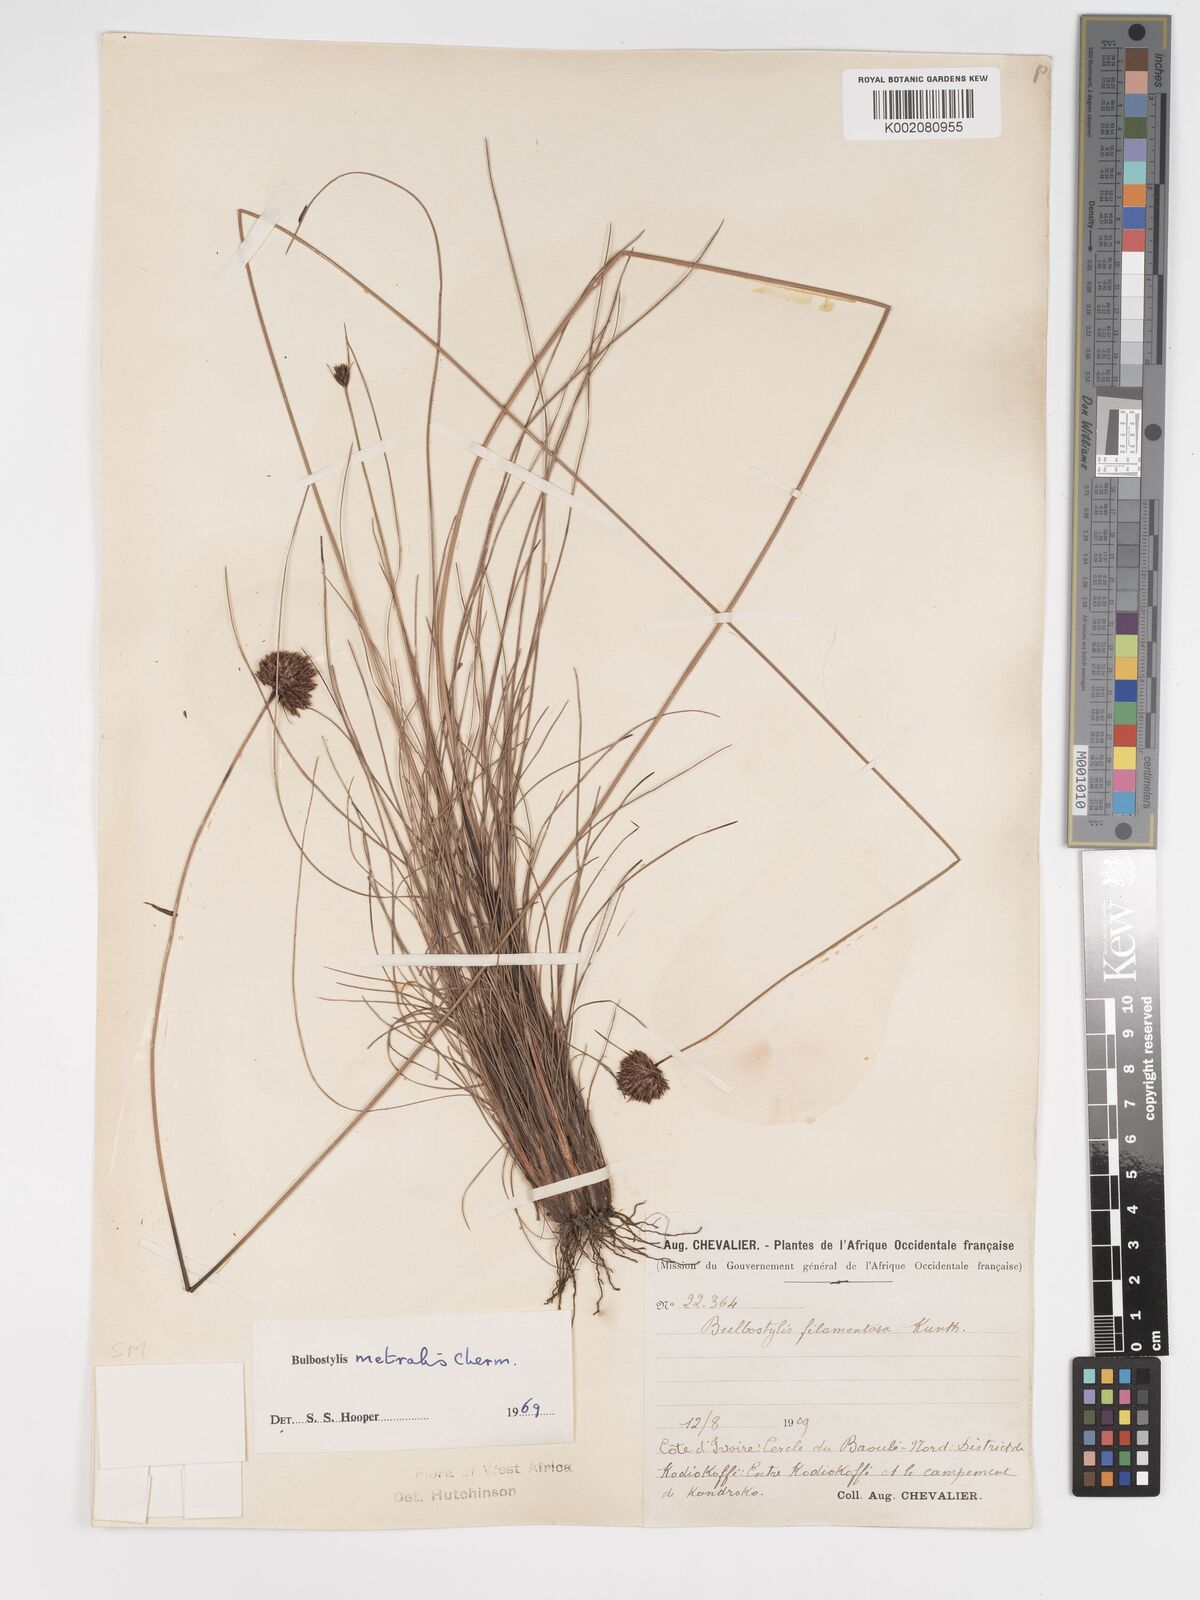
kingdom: Plantae
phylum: Tracheophyta
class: Liliopsida
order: Poales
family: Cyperaceae
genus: Bulbostylis
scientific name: Bulbostylis filamentosa
